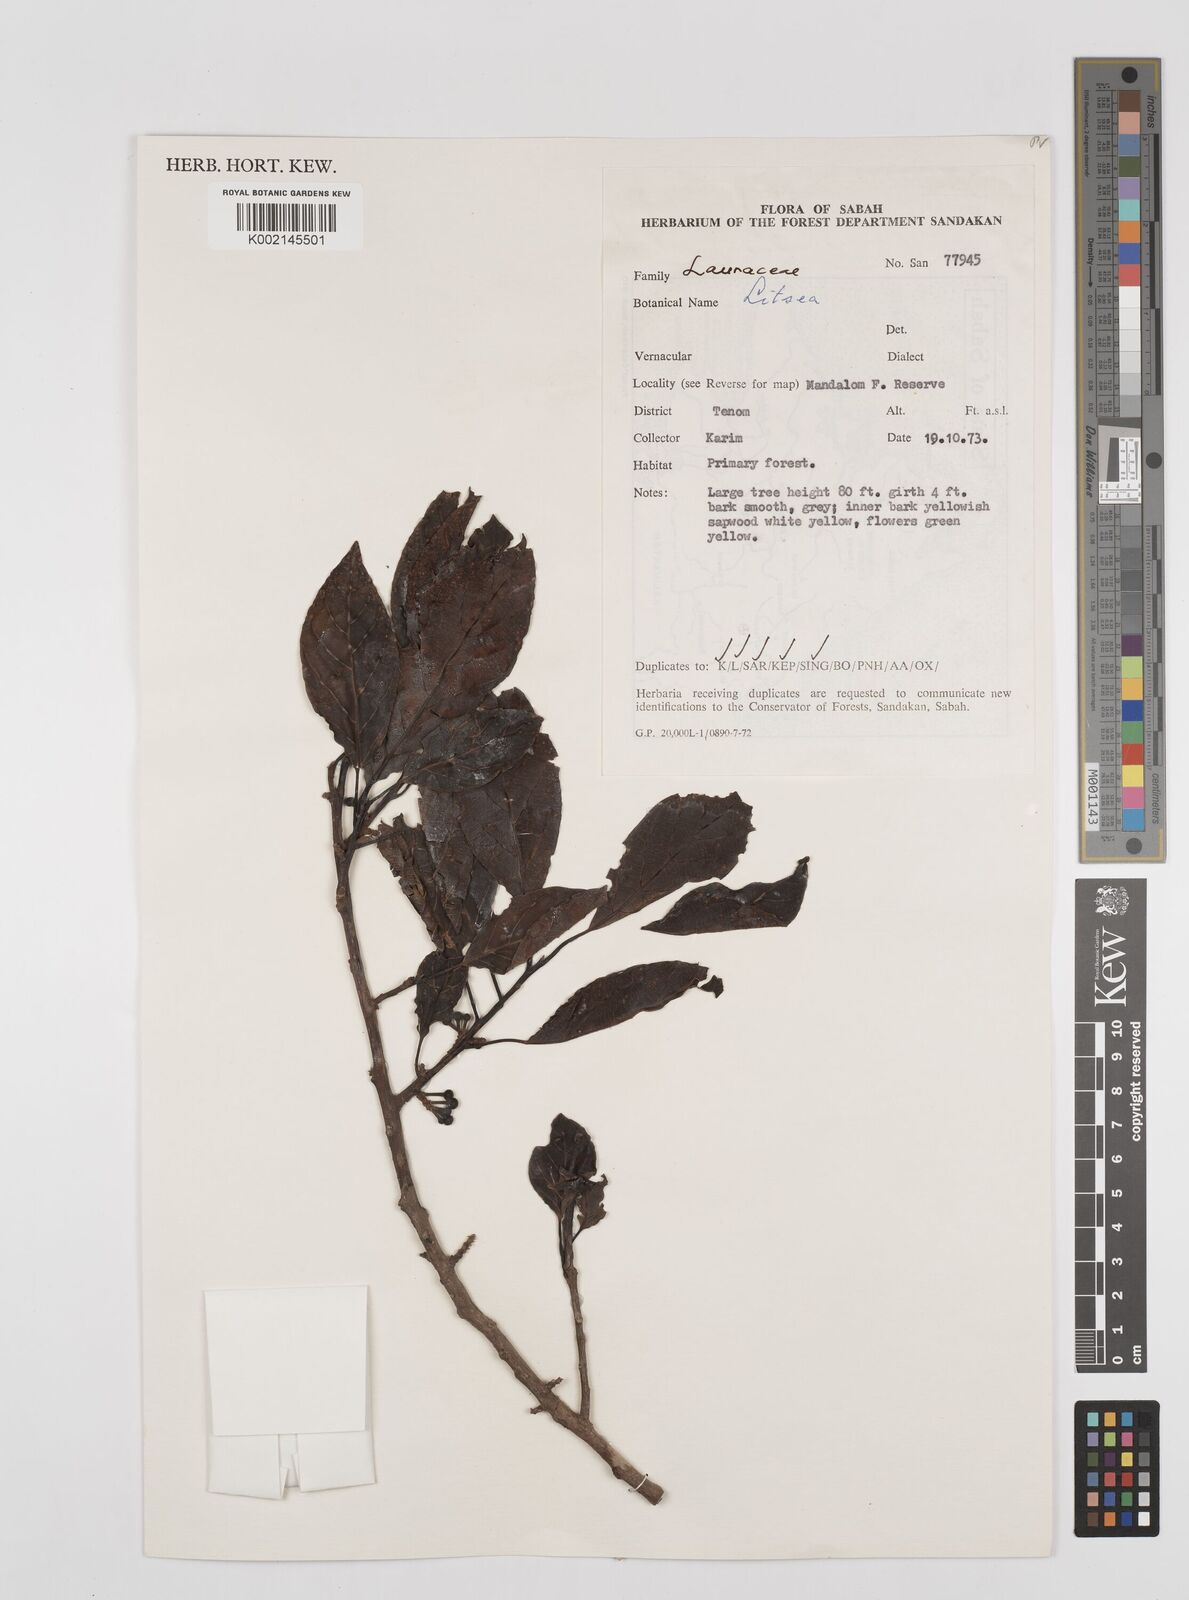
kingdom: Plantae
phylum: Tracheophyta
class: Magnoliopsida
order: Laurales
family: Lauraceae
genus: Litsea
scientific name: Litsea
